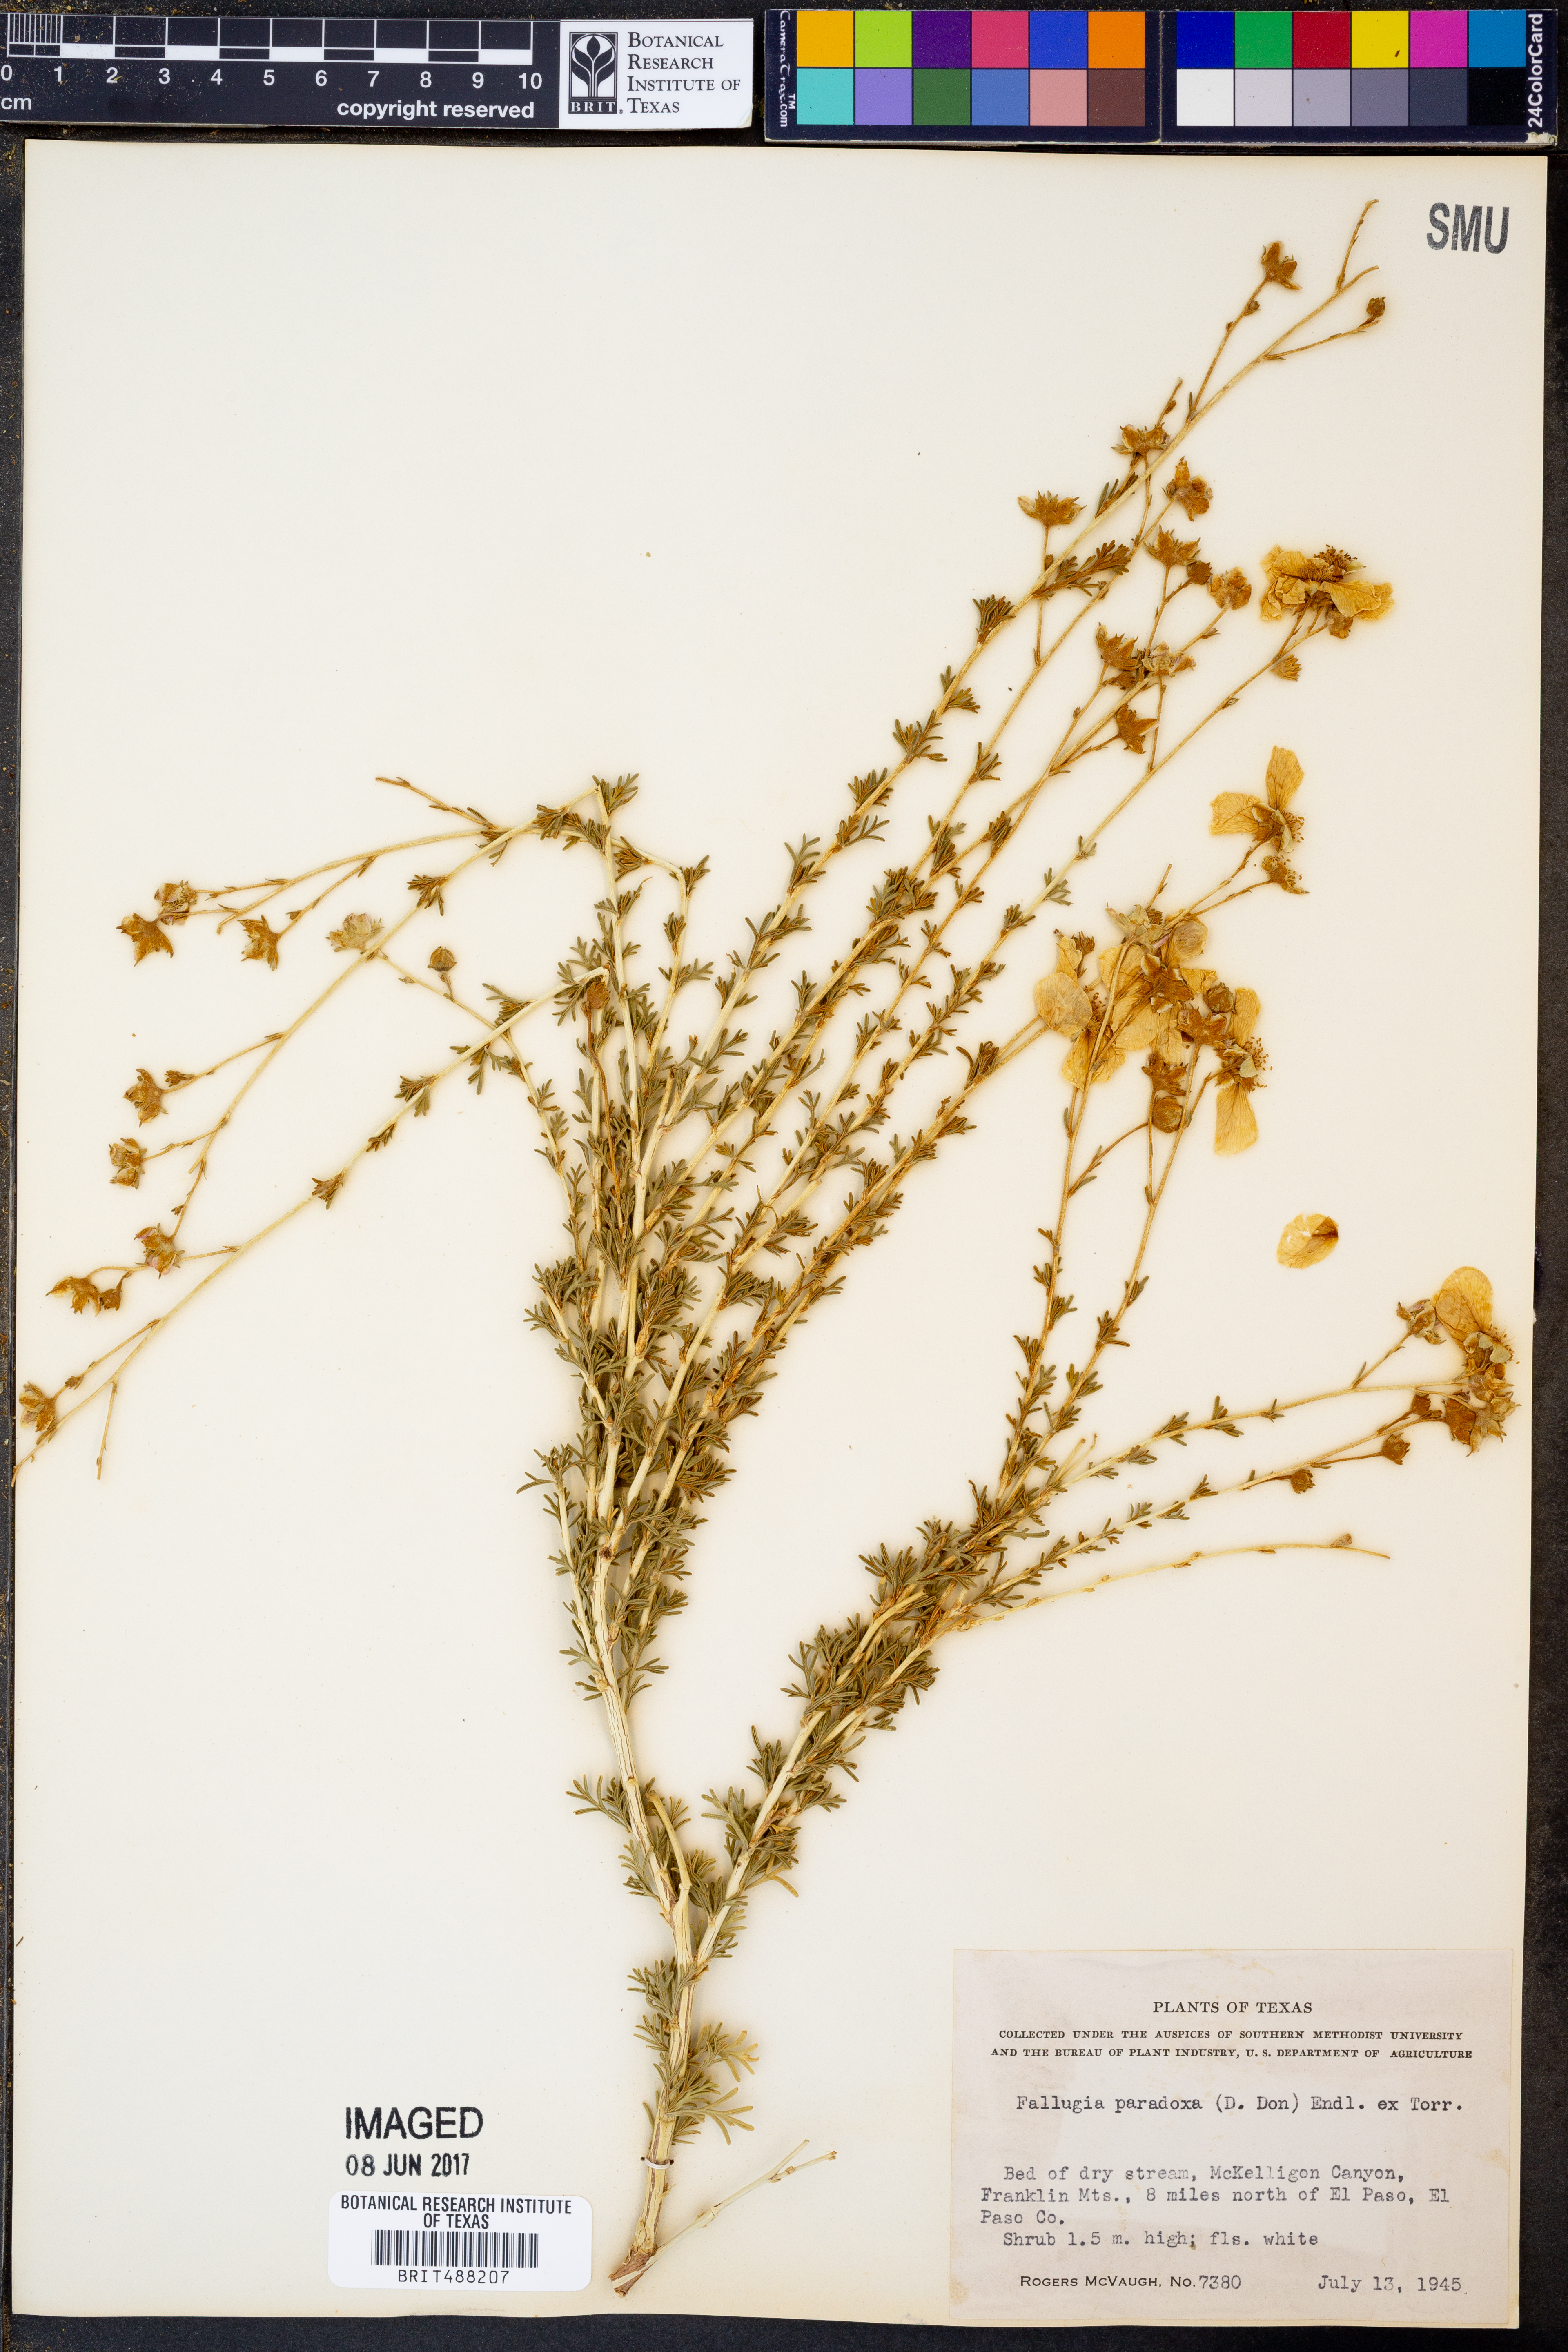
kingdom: Plantae
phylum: Tracheophyta
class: Magnoliopsida
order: Rosales
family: Rosaceae
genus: Fallugia
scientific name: Fallugia paradoxa
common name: Apache-plume
